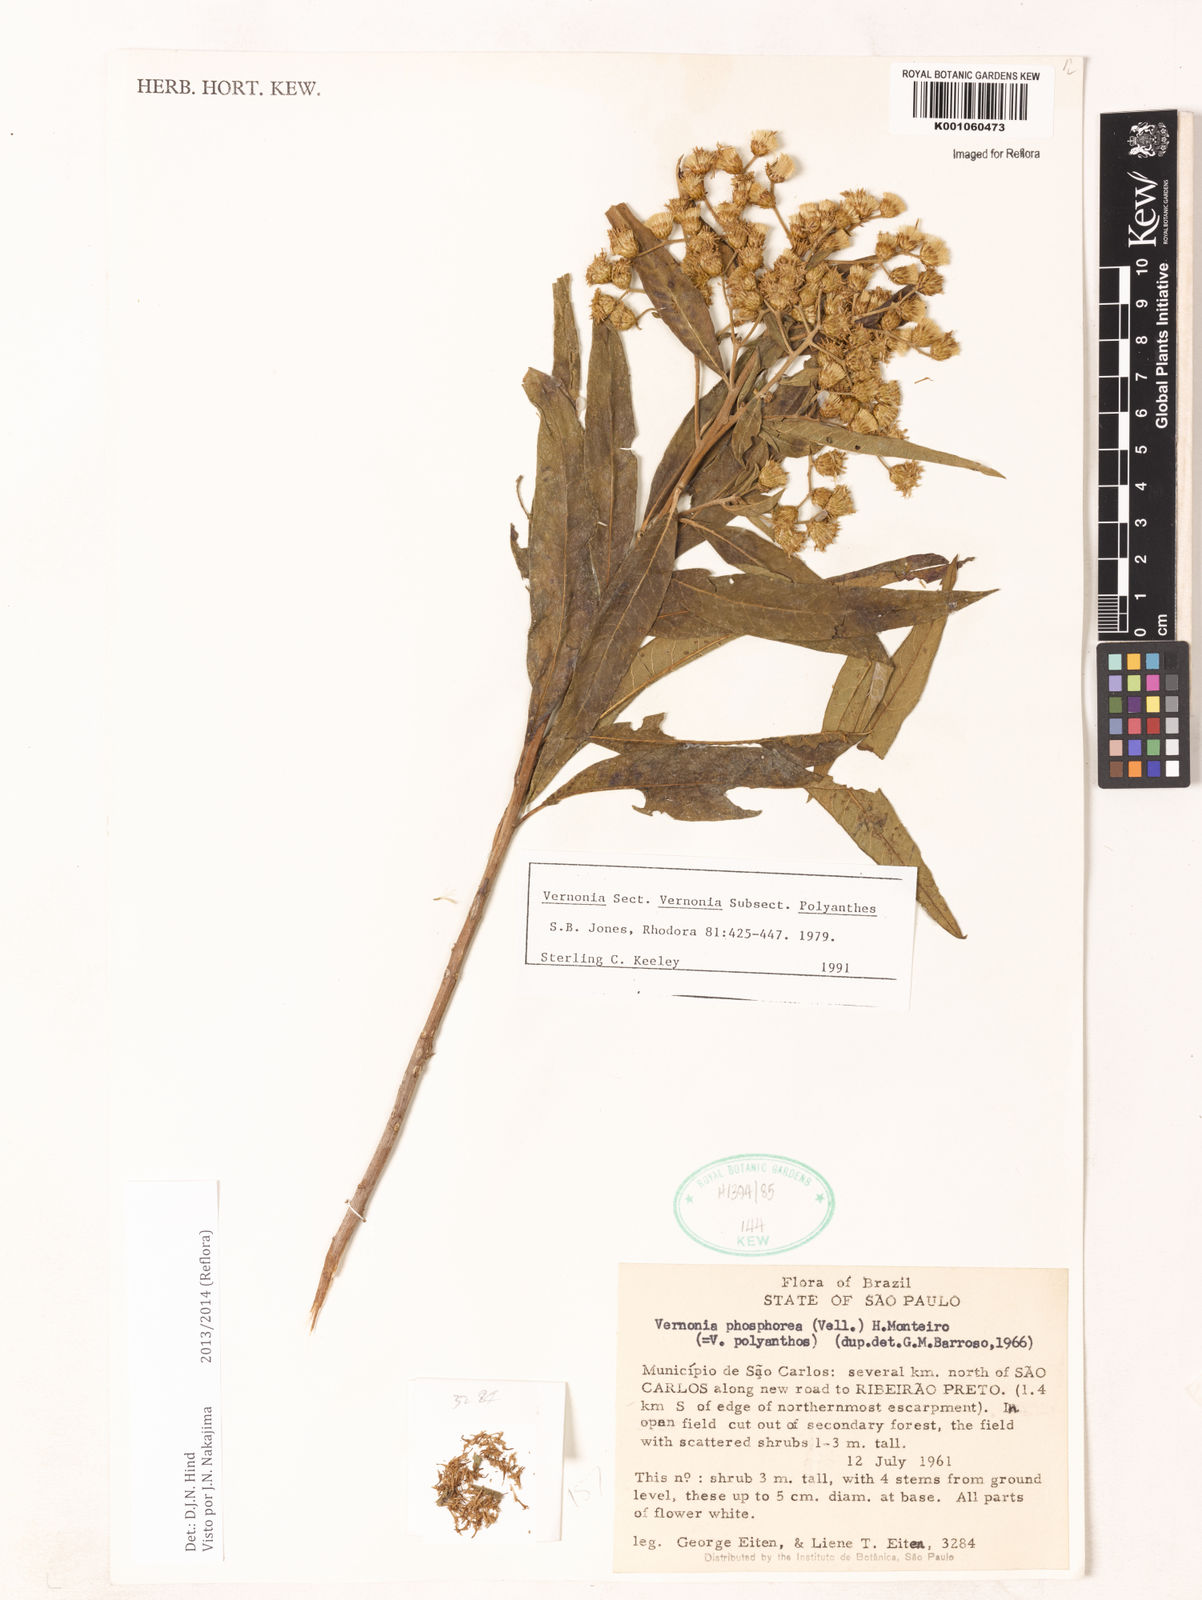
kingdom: Plantae
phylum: Tracheophyta
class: Magnoliopsida
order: Asterales
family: Asteraceae
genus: Vernonanthura
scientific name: Vernonanthura polyanthes
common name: Tree aster
